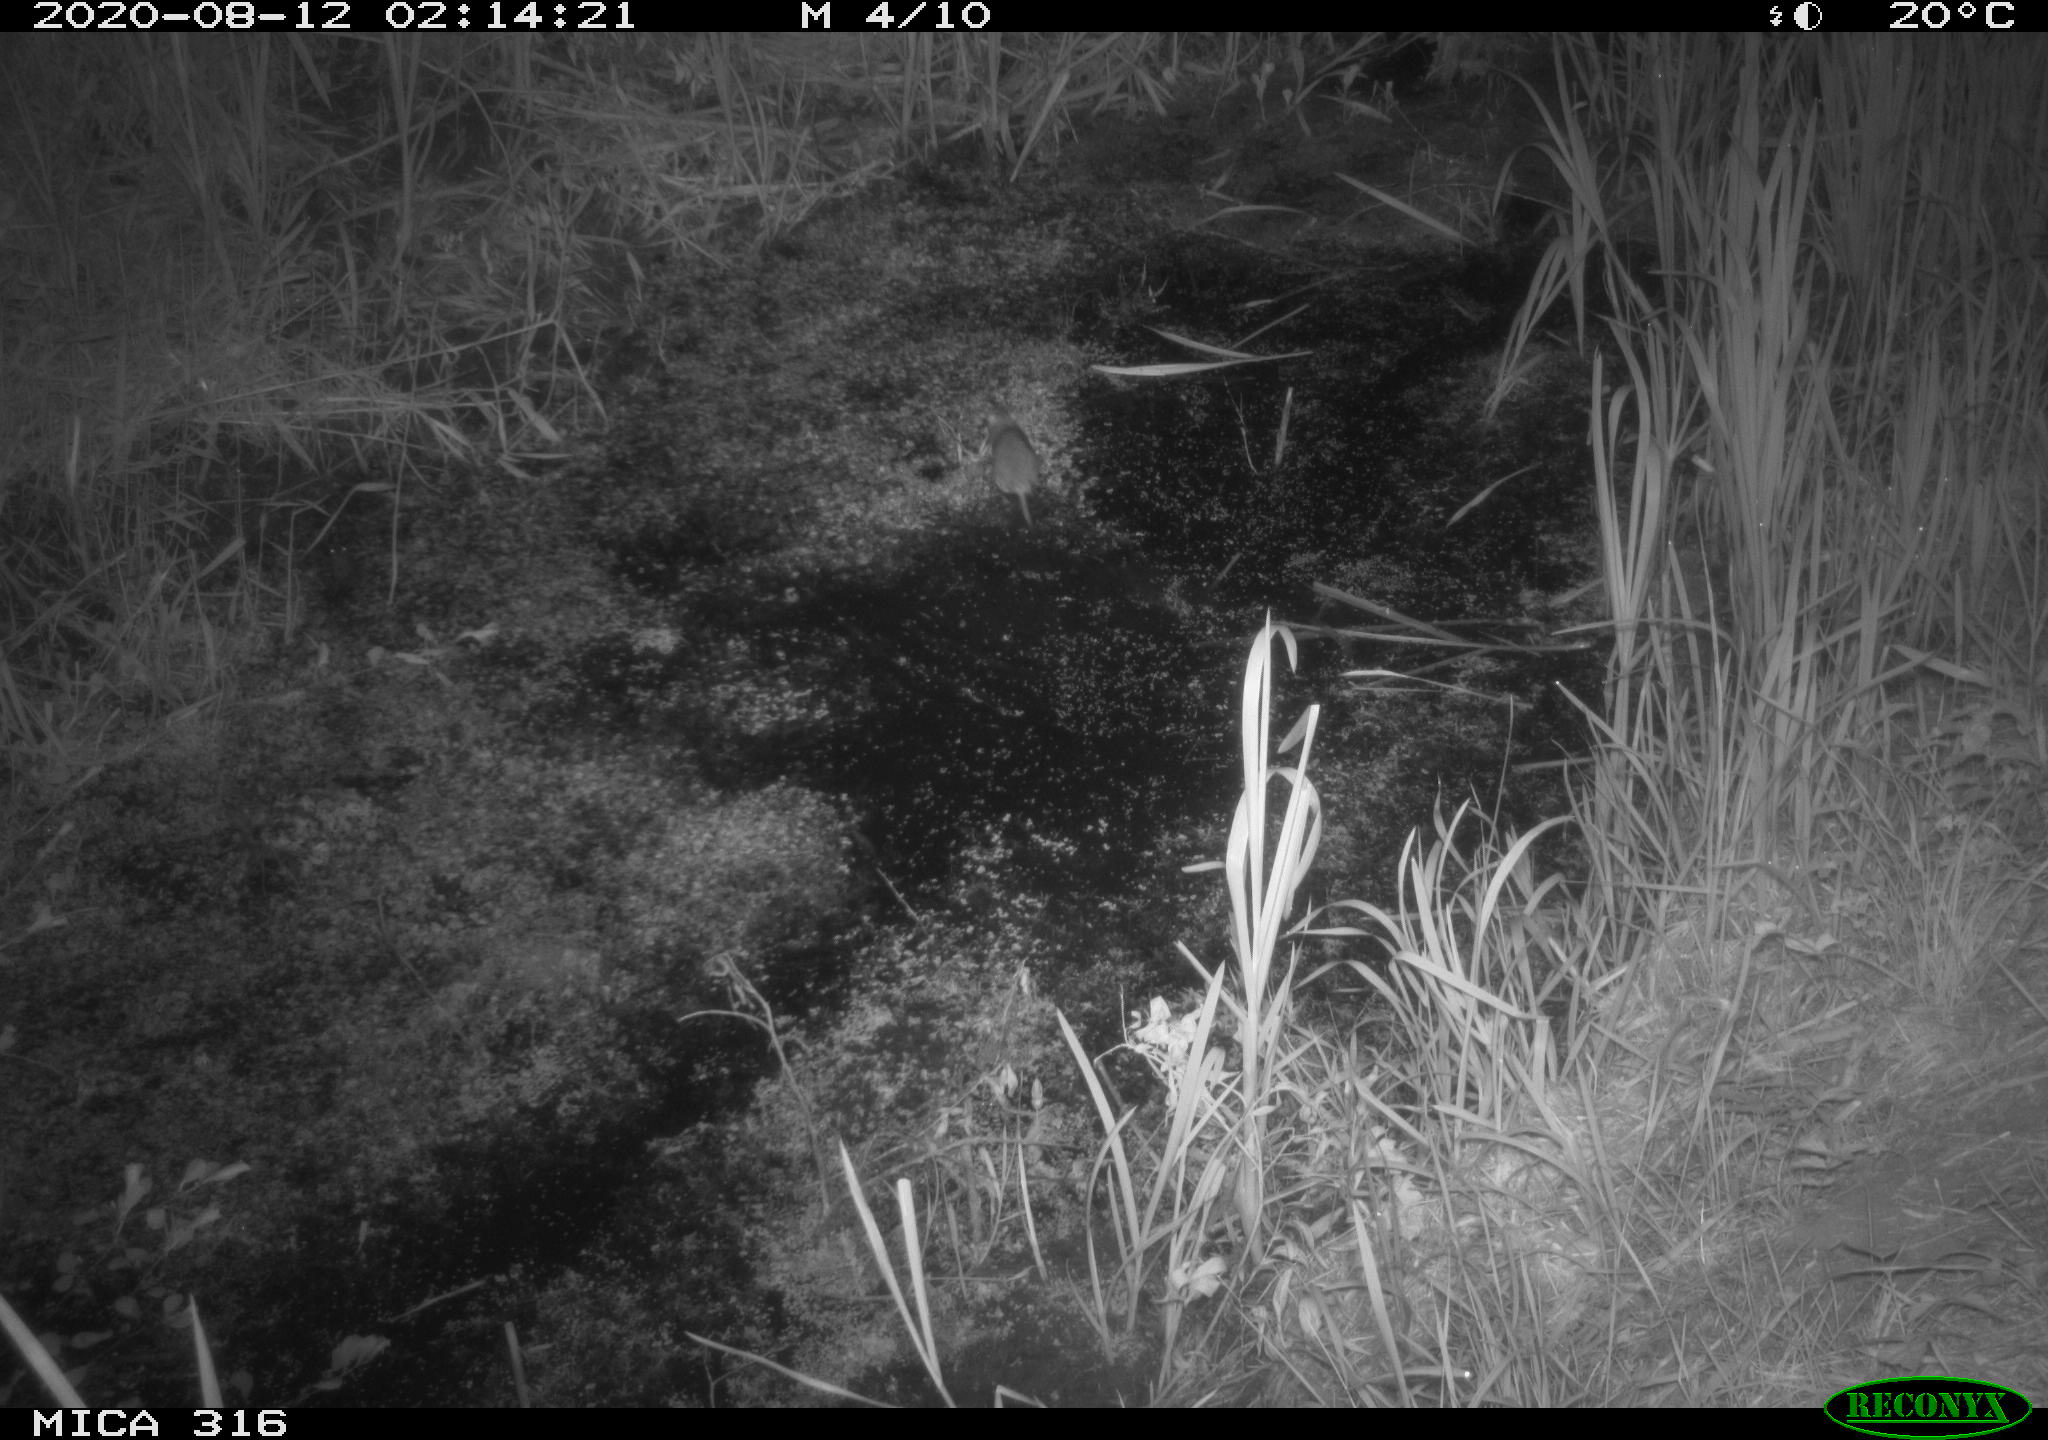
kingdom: Animalia
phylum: Chordata
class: Mammalia
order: Rodentia
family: Muridae
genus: Rattus
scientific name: Rattus norvegicus
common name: Brown rat
